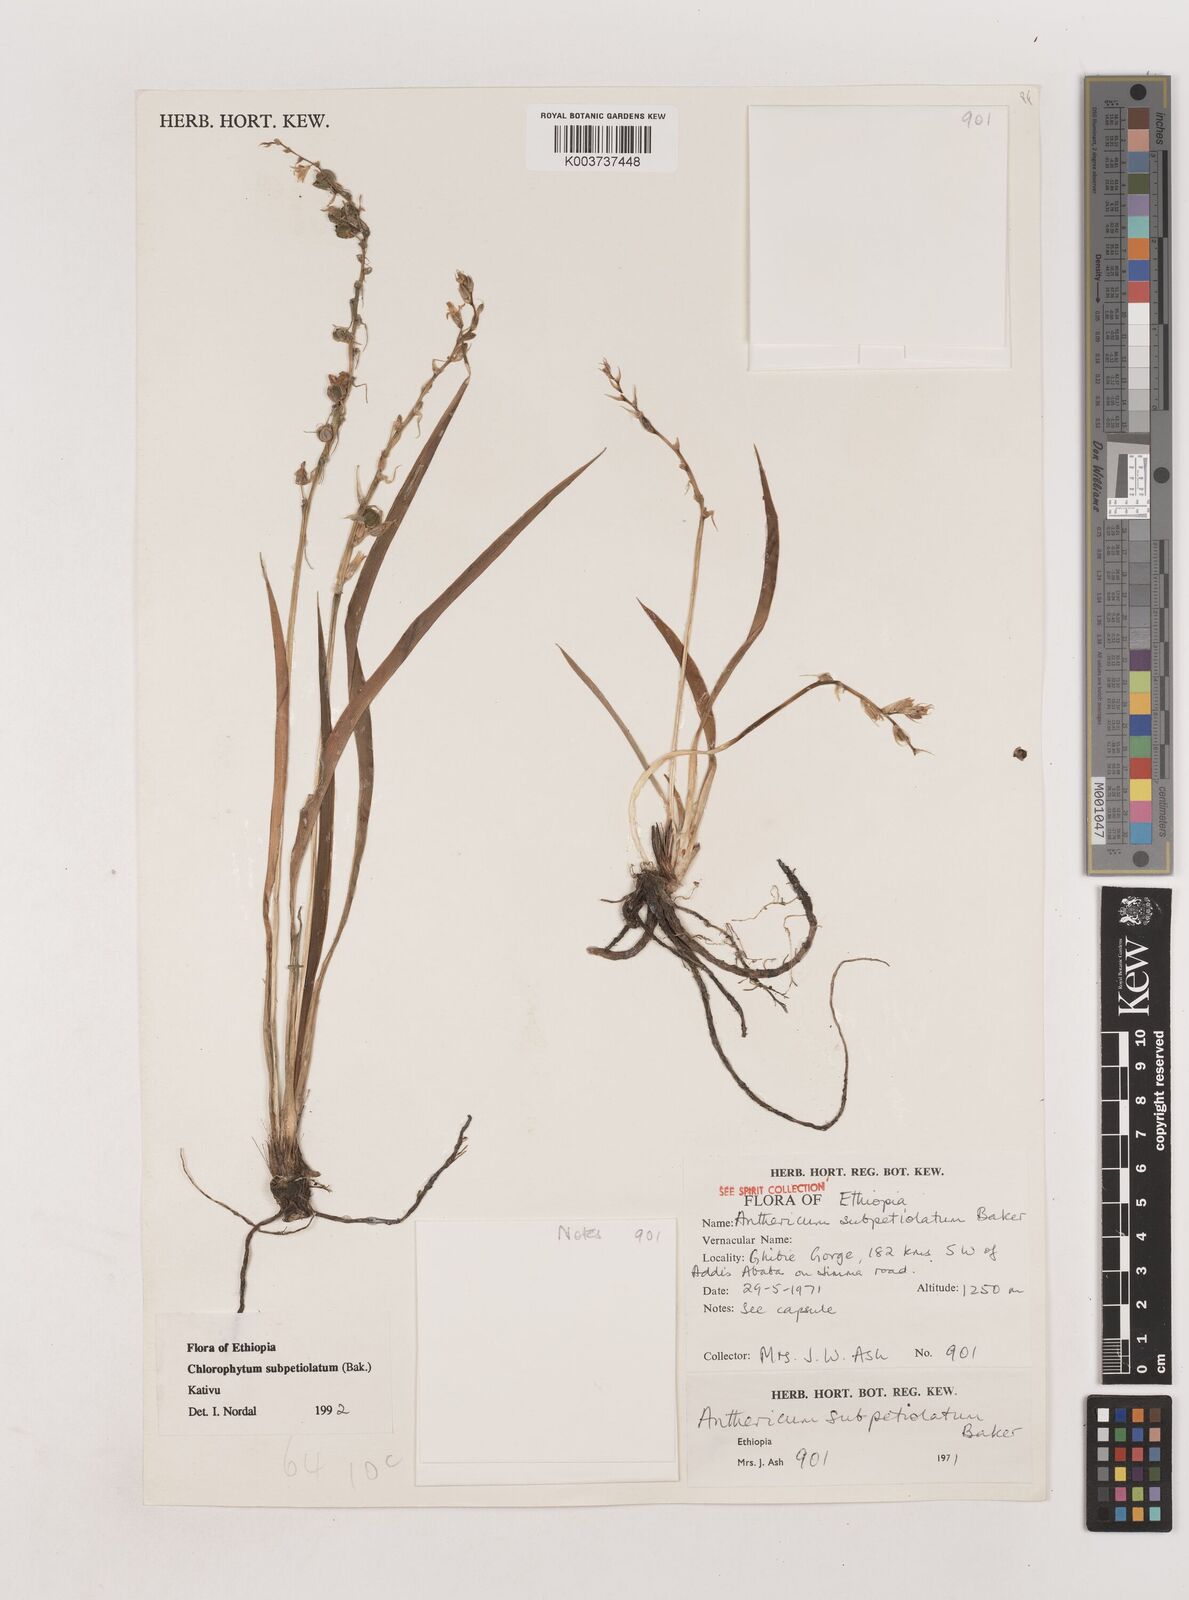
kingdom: Plantae
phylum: Tracheophyta
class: Liliopsida
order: Asparagales
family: Asparagaceae
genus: Chlorophytum
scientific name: Chlorophytum subpetiolatum
